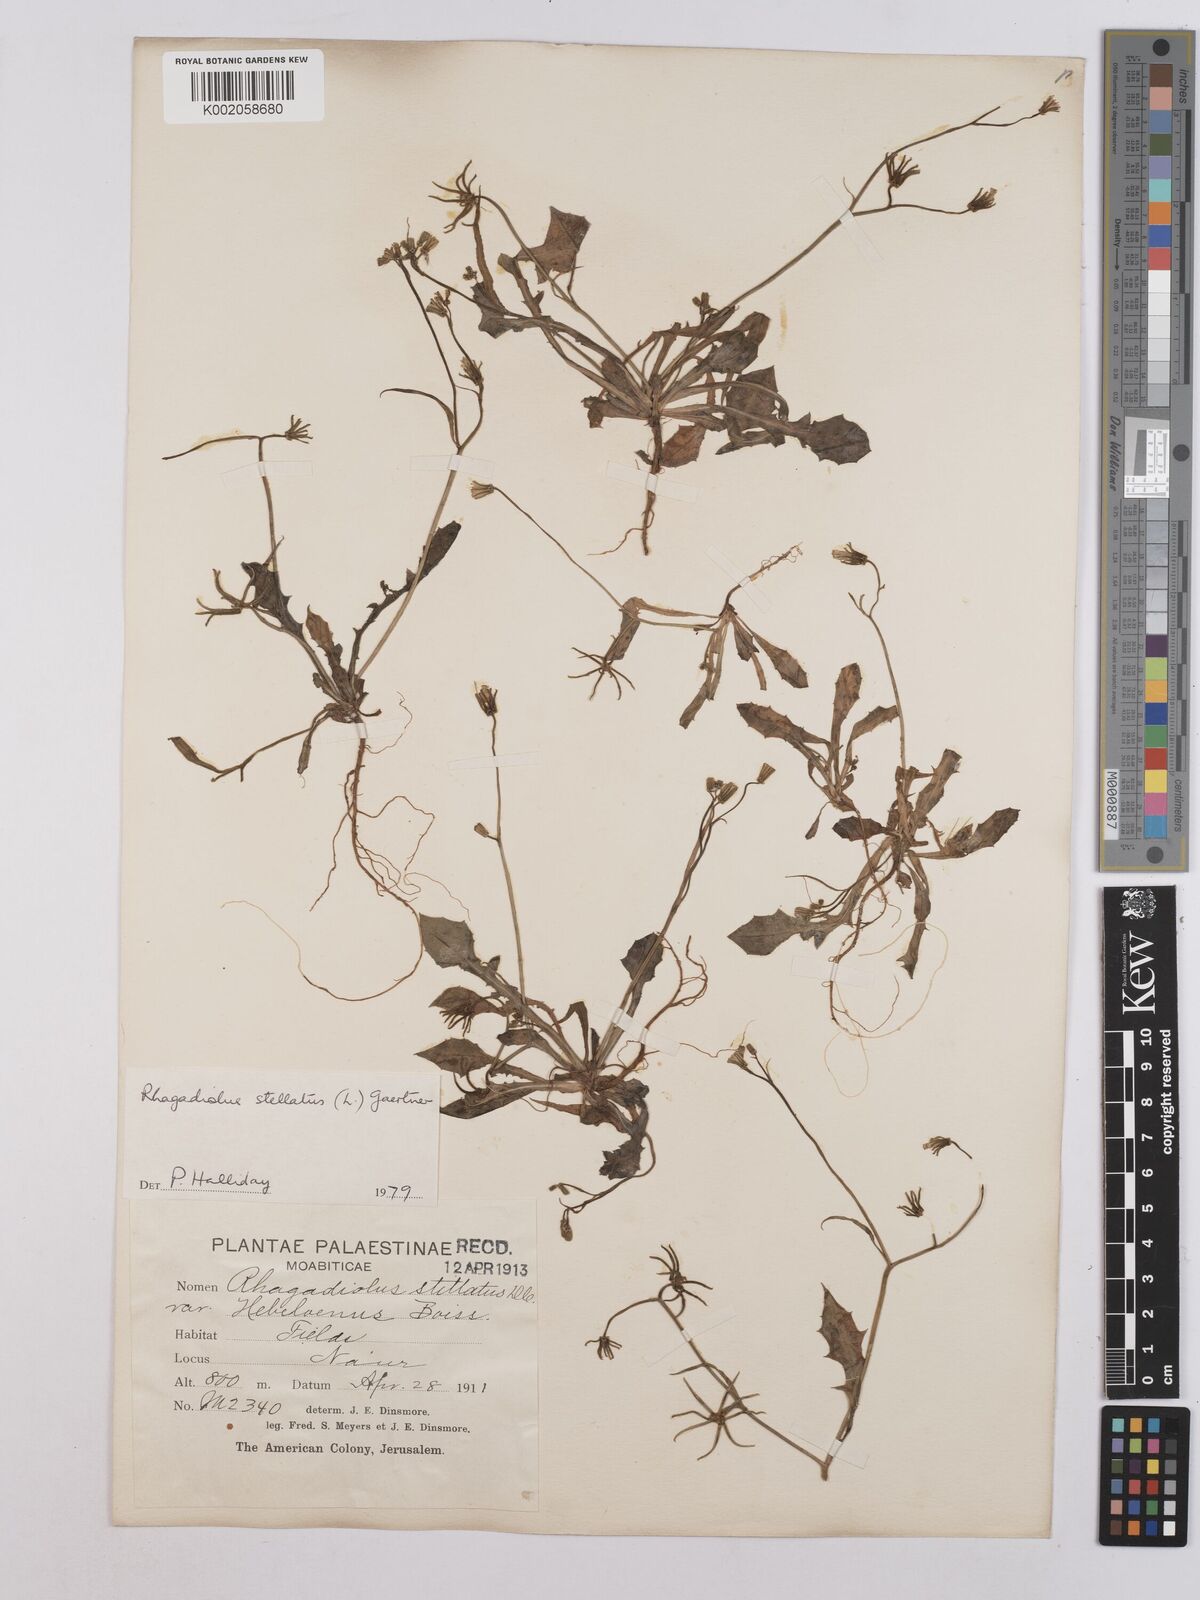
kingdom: Plantae
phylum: Tracheophyta
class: Magnoliopsida
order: Asterales
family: Asteraceae
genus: Rhagadiolus
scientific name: Rhagadiolus stellatus
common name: Star hawkbit
